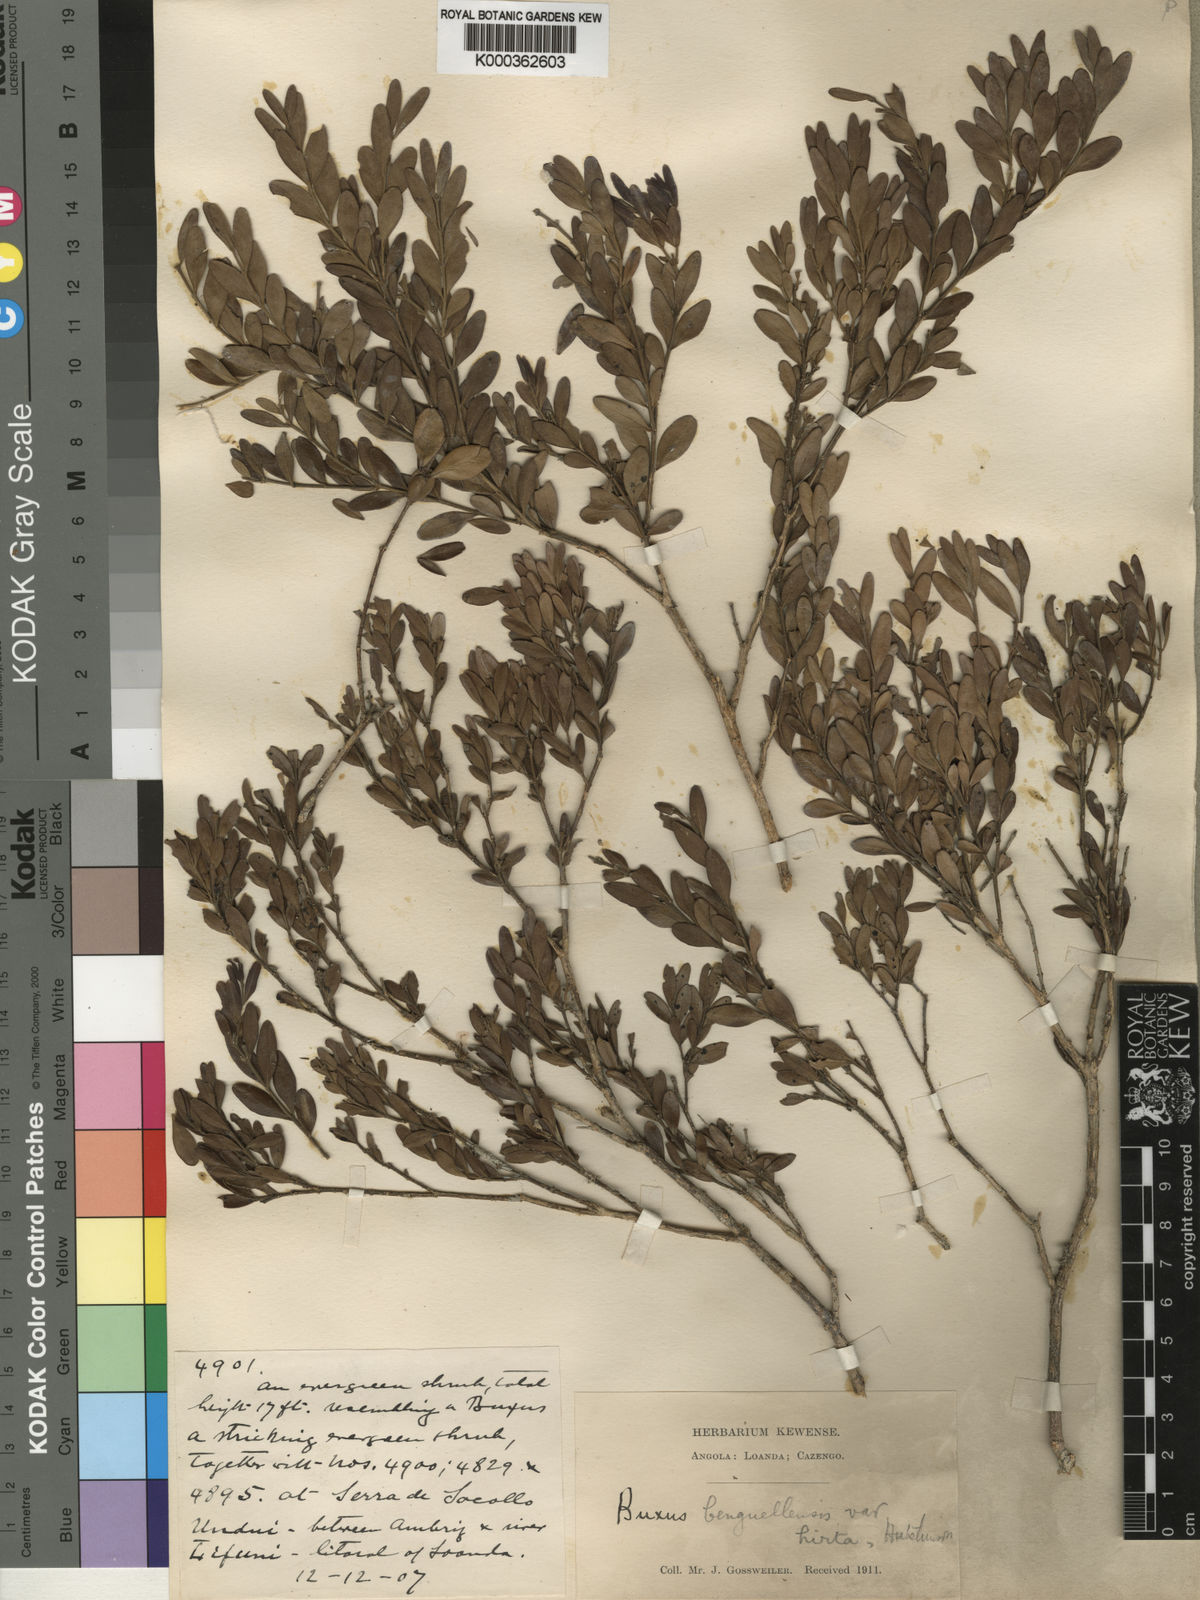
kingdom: Plantae
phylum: Tracheophyta
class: Magnoliopsida
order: Buxales
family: Buxaceae
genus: Buxus
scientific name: Buxus benguellensis
